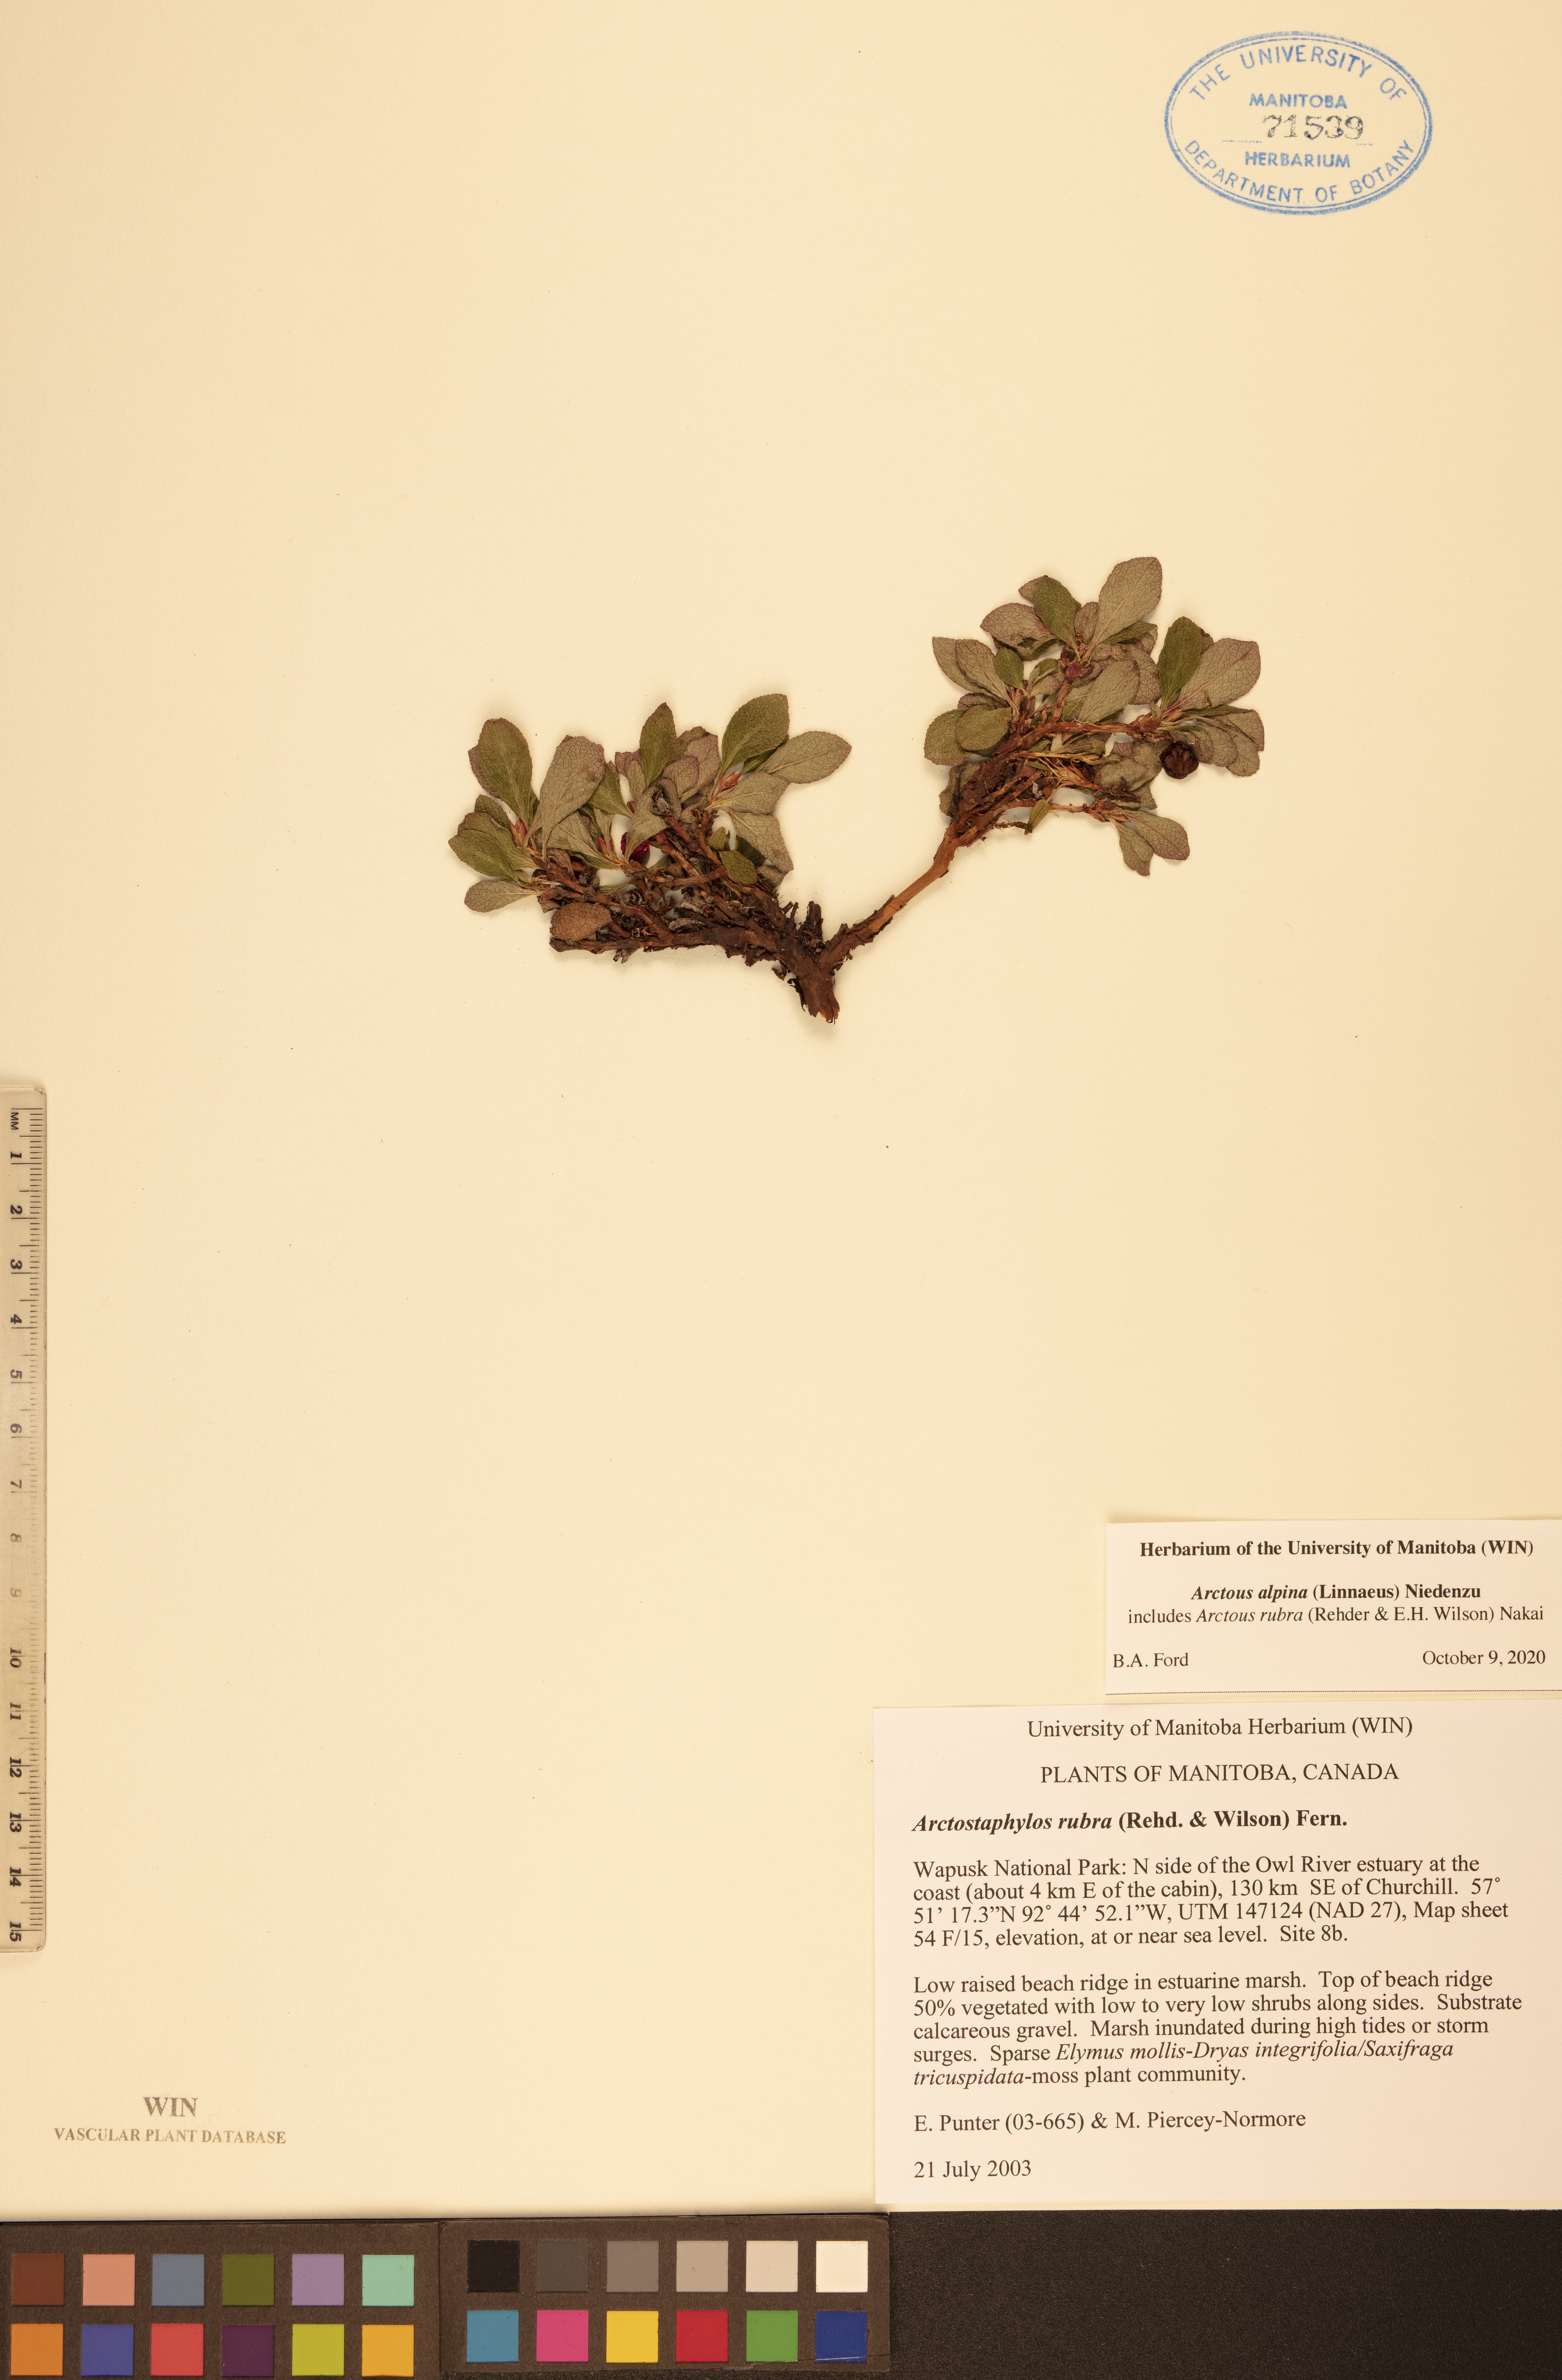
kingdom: Plantae
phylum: Tracheophyta
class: Magnoliopsida
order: Ericales
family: Ericaceae
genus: Arctostaphylos
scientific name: Arctostaphylos alpinus
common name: Alpine bearberry
